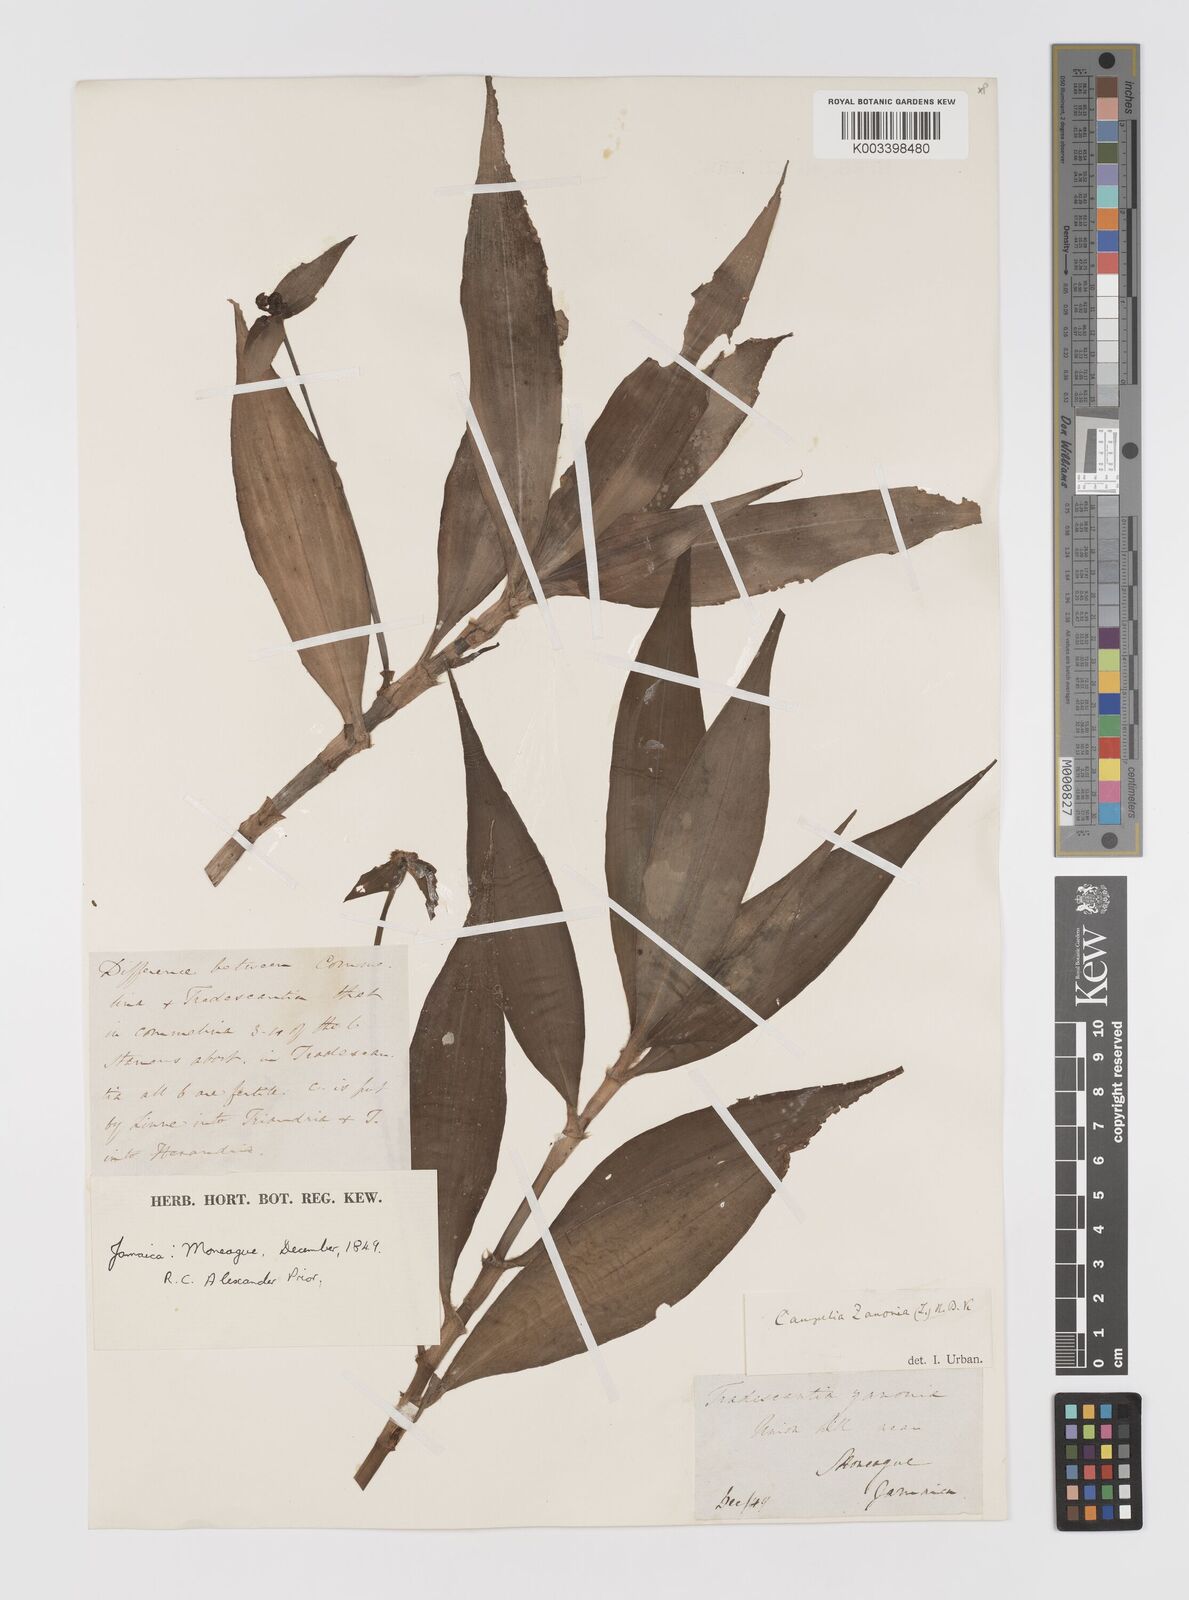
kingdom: Plantae
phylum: Tracheophyta
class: Liliopsida
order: Commelinales
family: Commelinaceae
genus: Tradescantia
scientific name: Tradescantia zanonia
